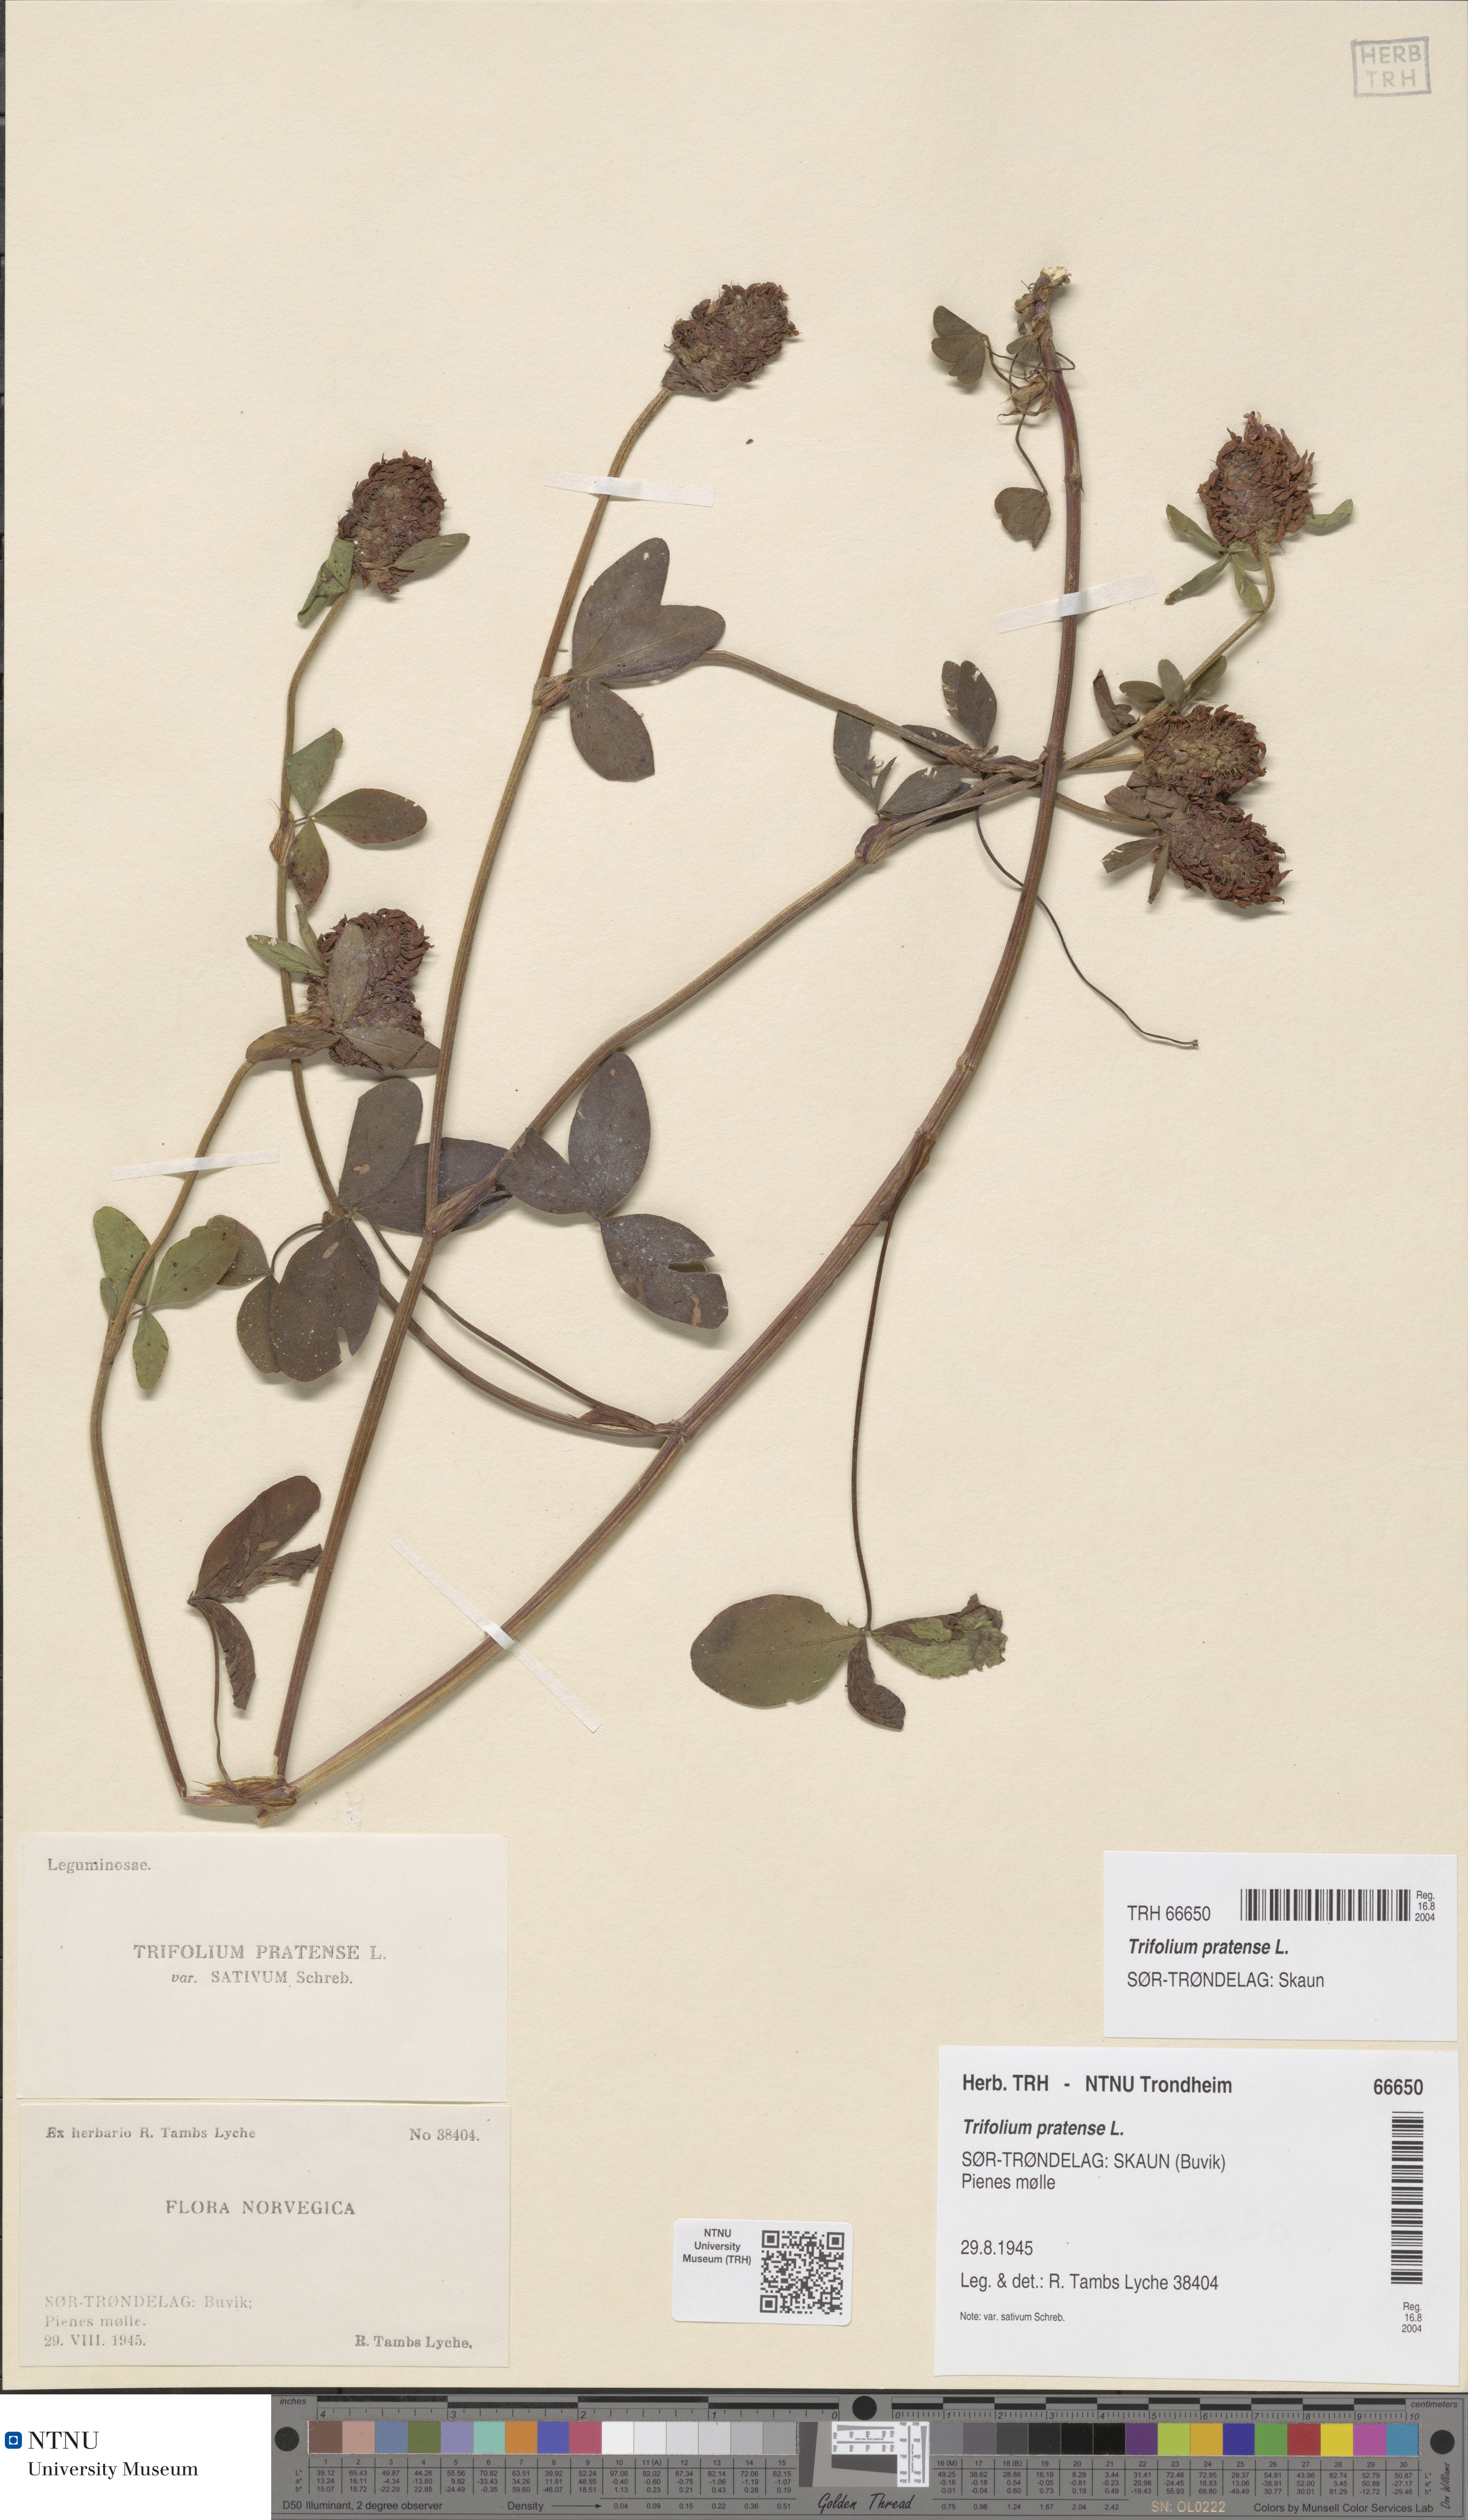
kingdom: Plantae
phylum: Tracheophyta
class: Magnoliopsida
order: Fabales
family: Fabaceae
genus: Trifolium
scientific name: Trifolium pratense
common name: Red clover
